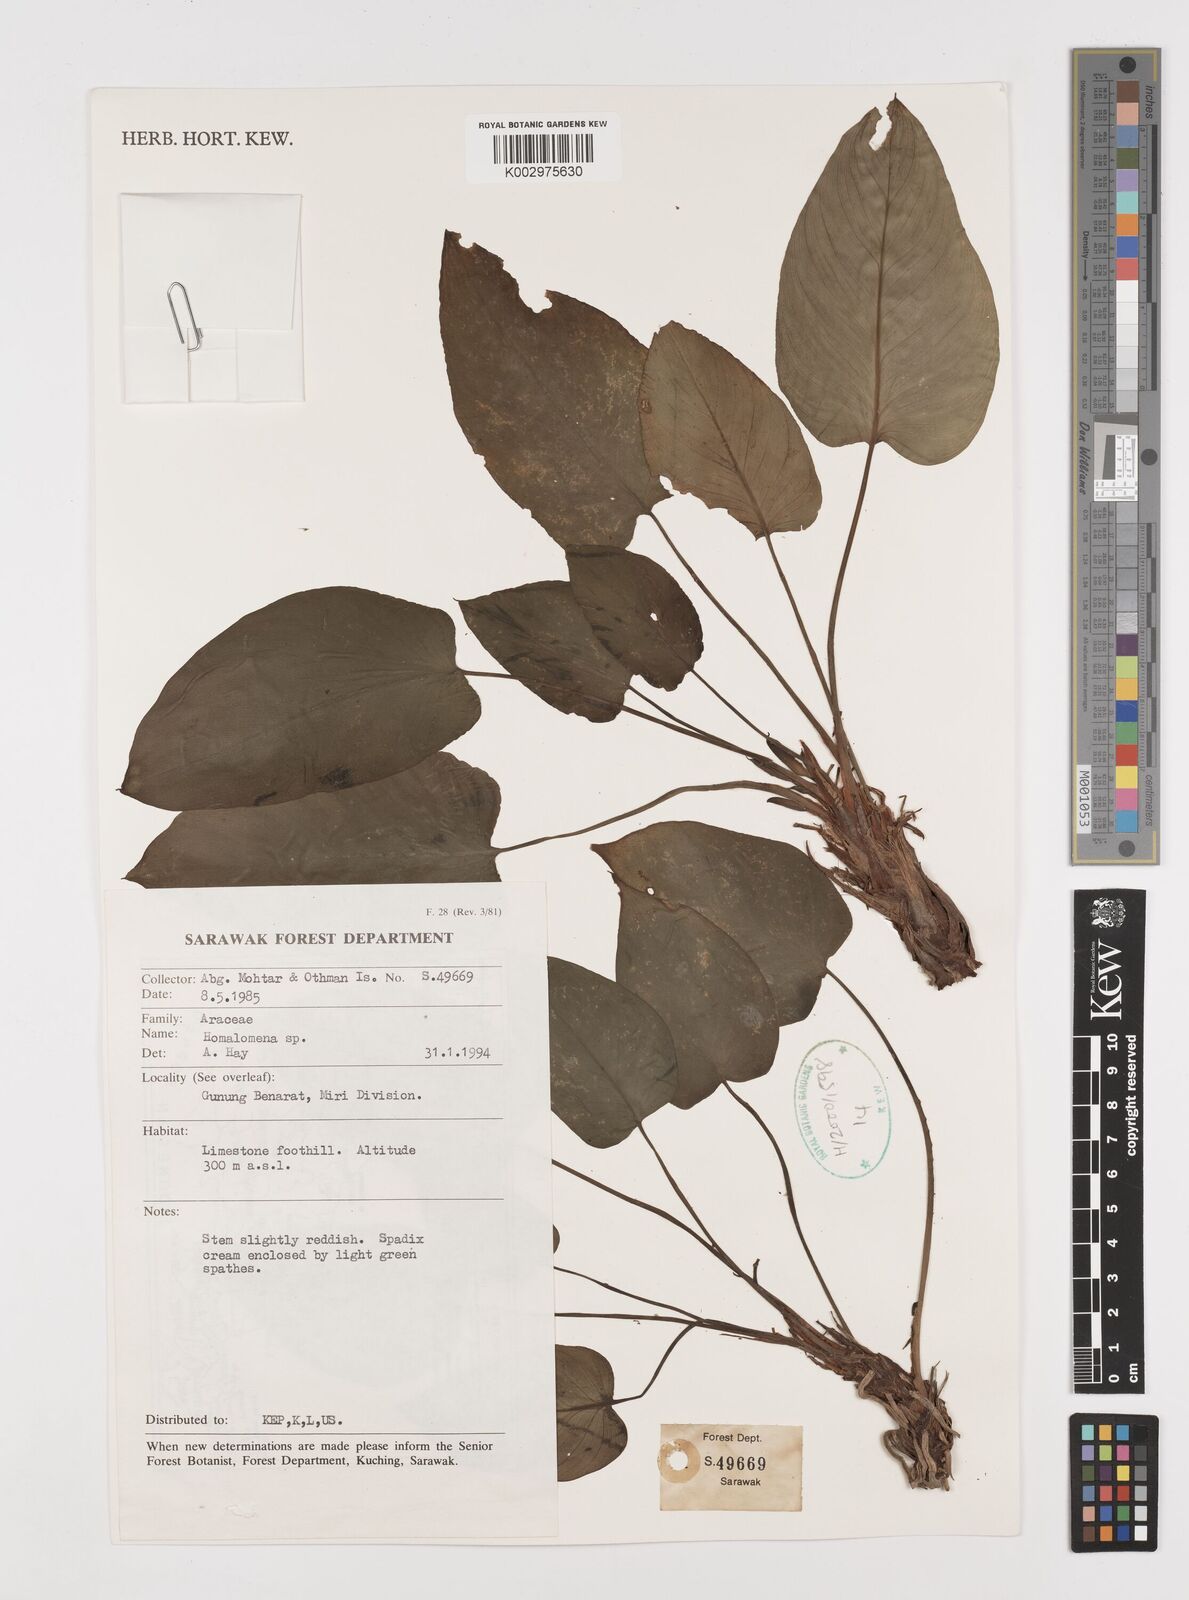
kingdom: Plantae
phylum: Tracheophyta
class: Liliopsida
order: Alismatales
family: Araceae
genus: Homalomena
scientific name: Homalomena
